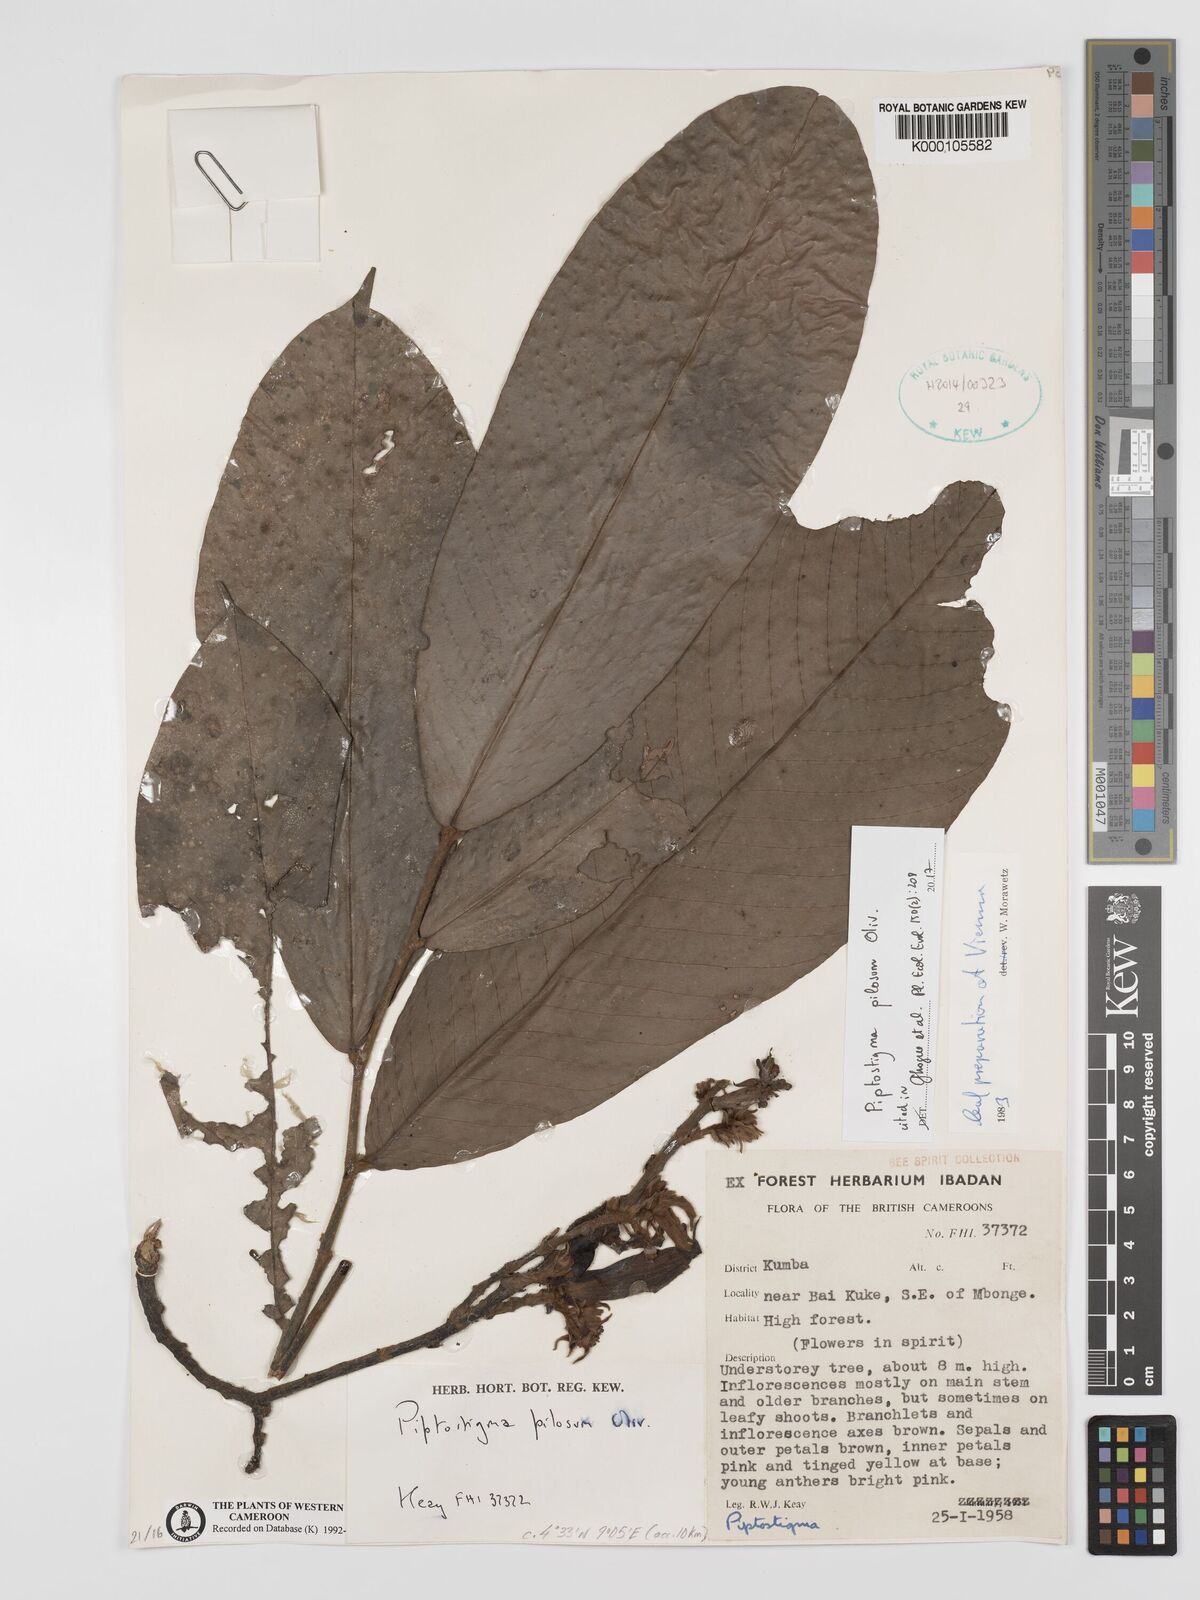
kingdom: Plantae
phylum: Tracheophyta
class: Magnoliopsida
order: Magnoliales
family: Annonaceae
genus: Piptostigma
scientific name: Piptostigma pilosum
